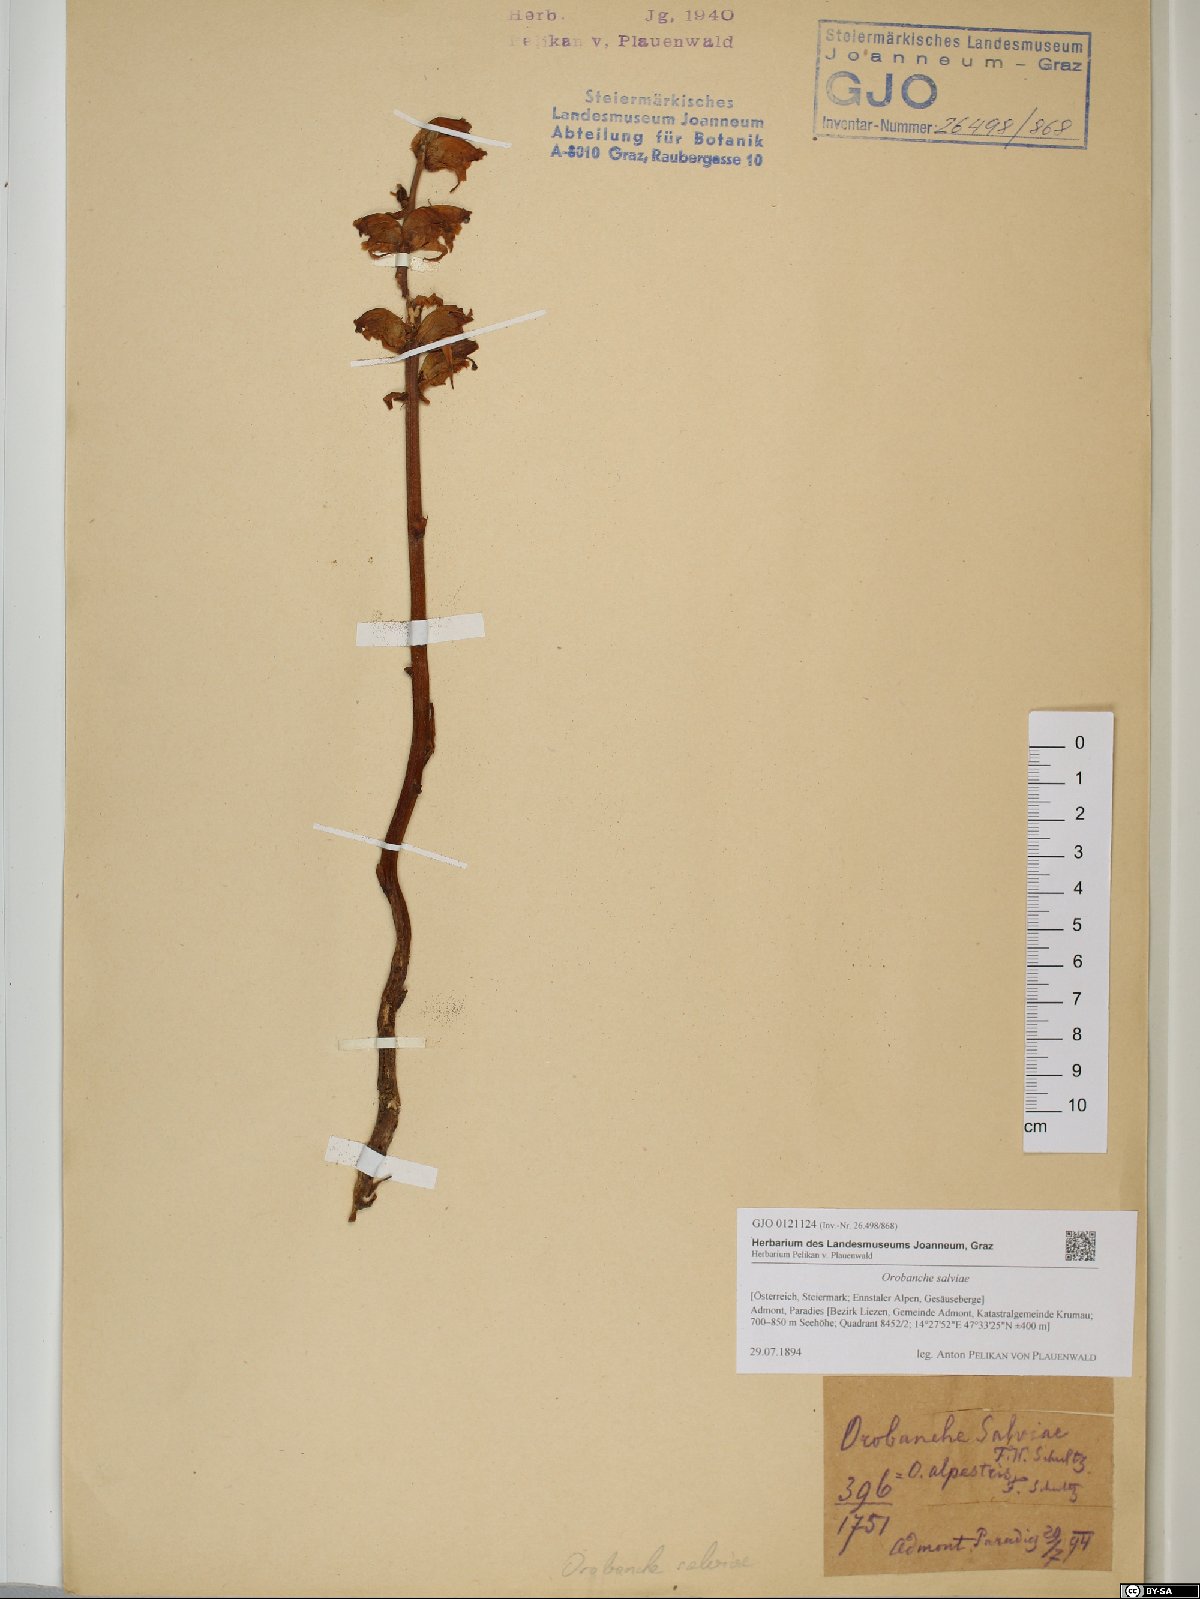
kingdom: Plantae
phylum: Tracheophyta
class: Magnoliopsida
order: Lamiales
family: Orobanchaceae
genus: Orobanche
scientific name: Orobanche salviae
